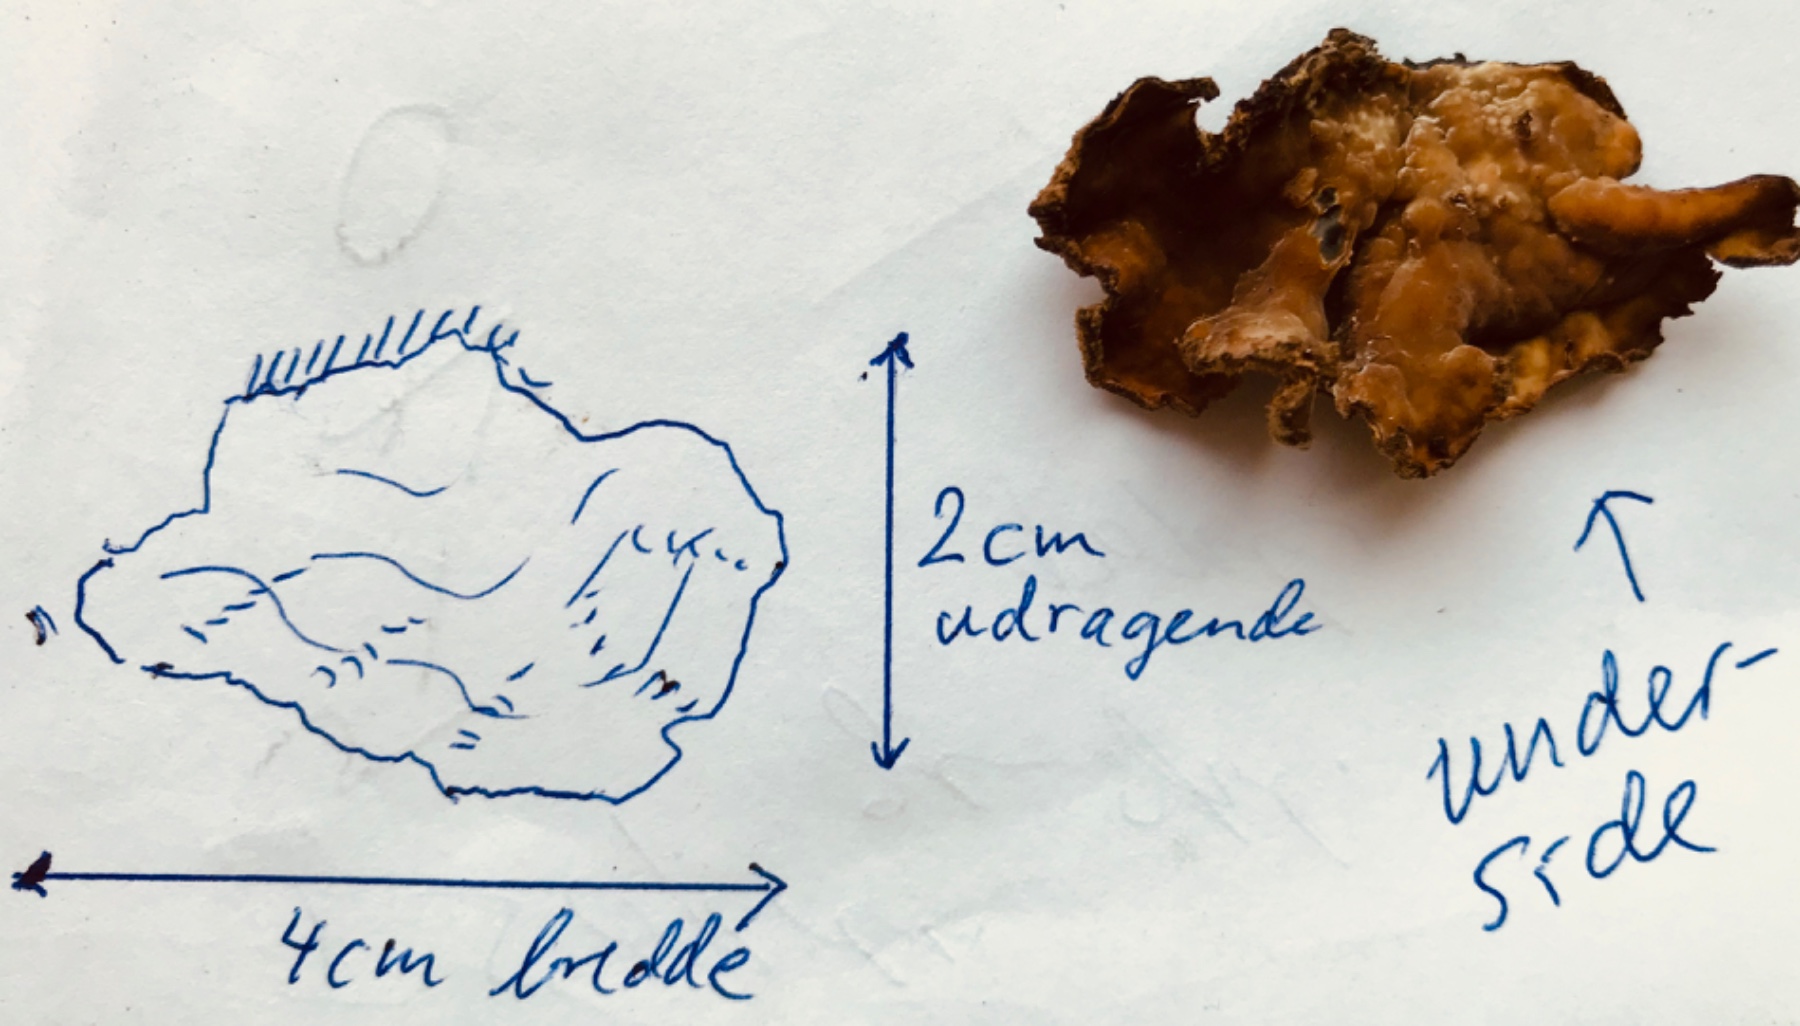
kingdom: Fungi
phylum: Basidiomycota
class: Agaricomycetes
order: Agaricales
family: Cyphellaceae
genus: Chondrostereum
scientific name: Chondrostereum purpureum
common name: purpurlædersvamp
